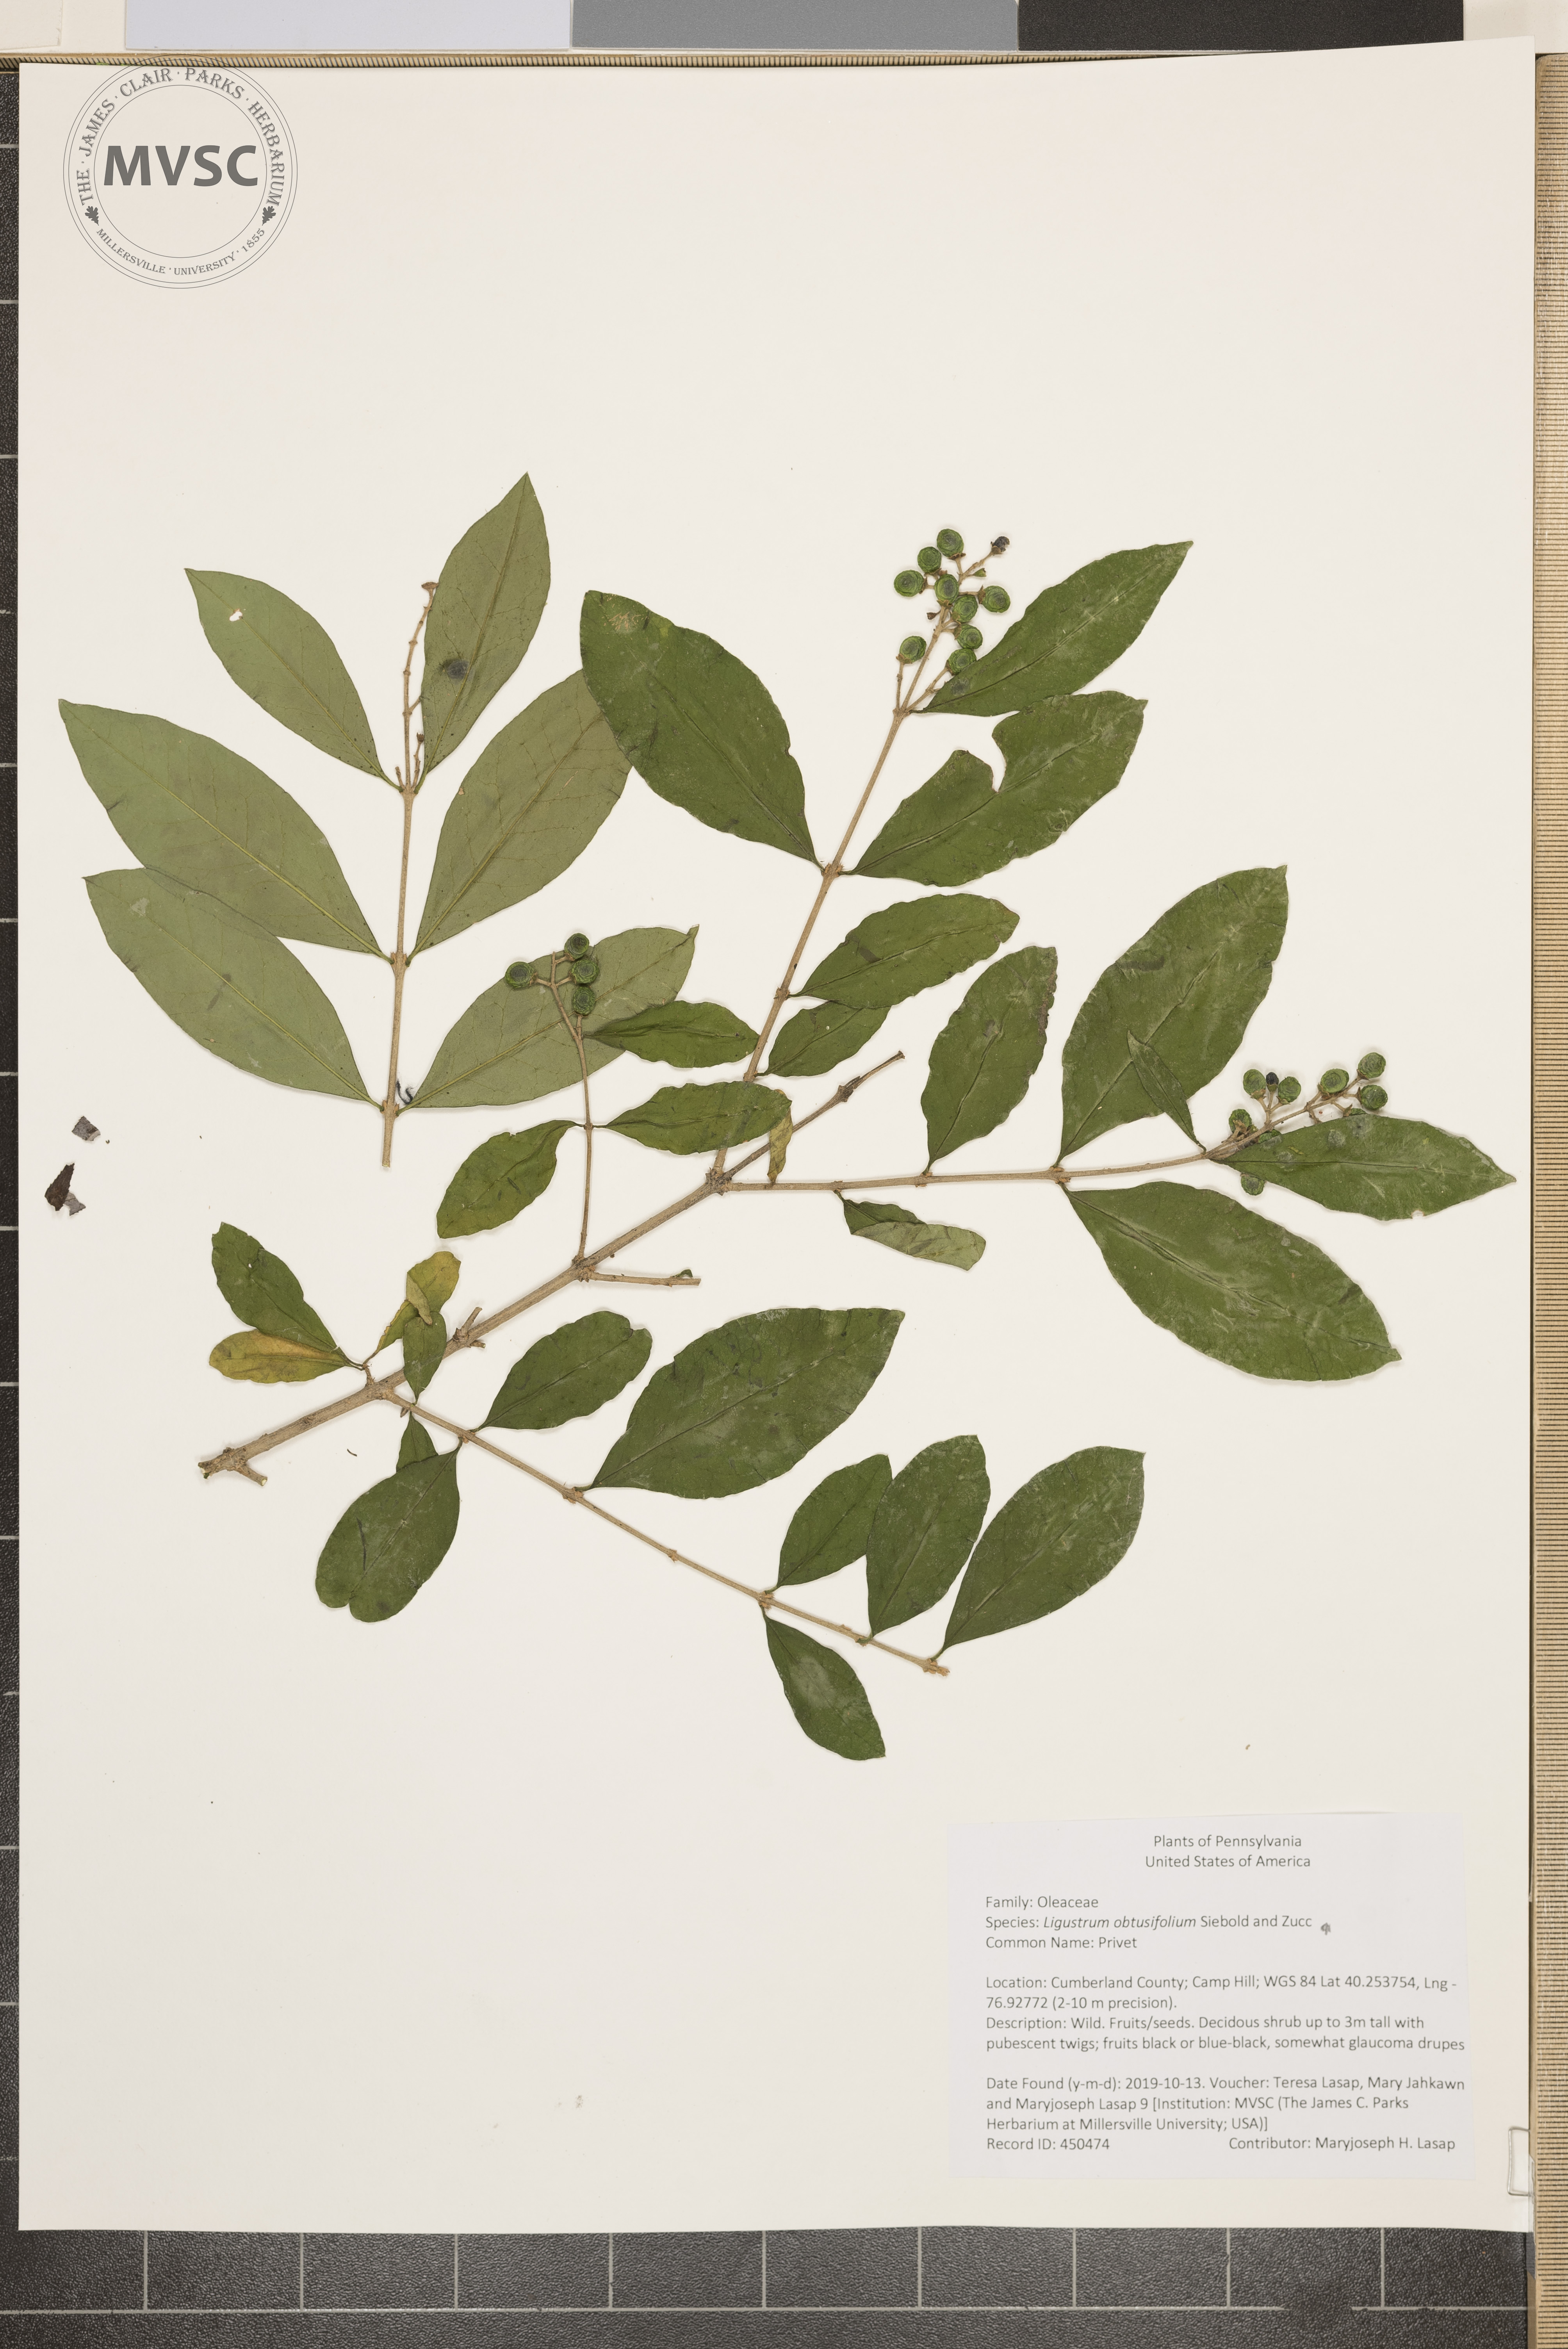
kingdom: Plantae
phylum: Tracheophyta
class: Magnoliopsida
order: Lamiales
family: Oleaceae
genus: Ligustrum
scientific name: Ligustrum obtusifolium
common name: Privet
